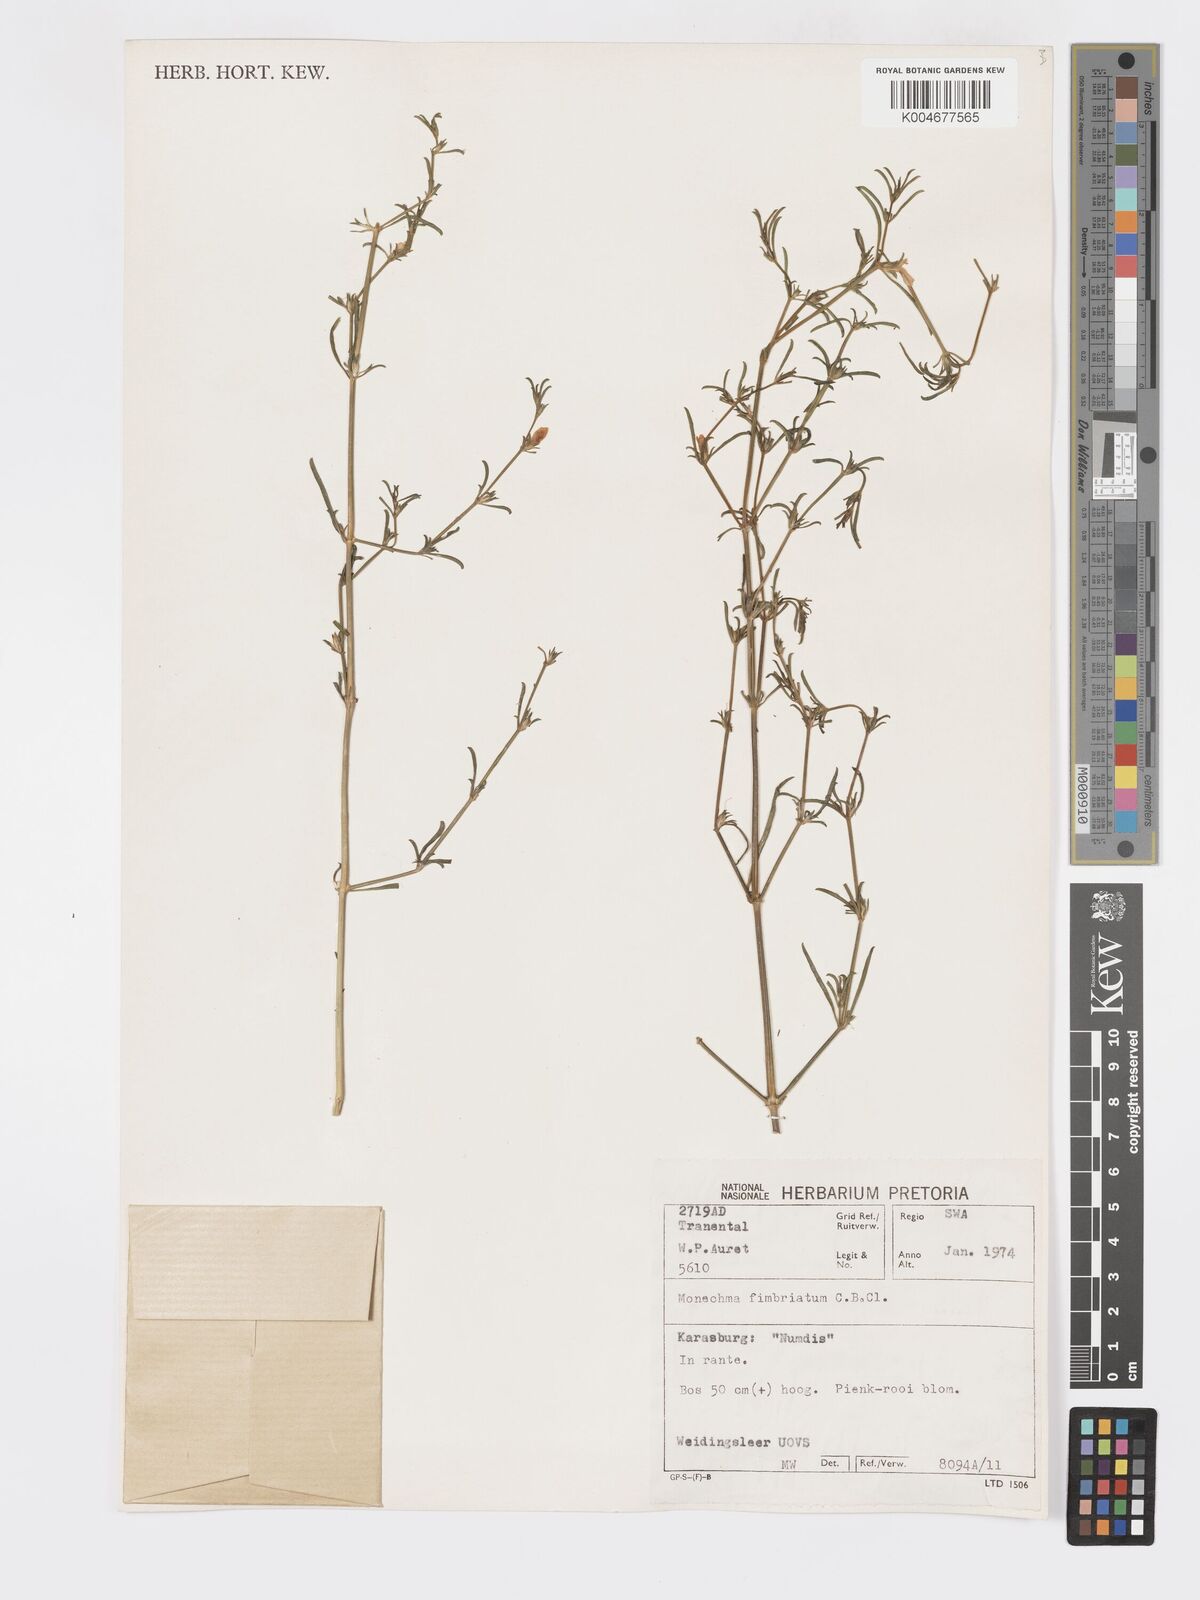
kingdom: Plantae
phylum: Tracheophyta
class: Magnoliopsida
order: Lamiales
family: Acanthaceae
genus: Pogonospermum
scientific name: Pogonospermum
